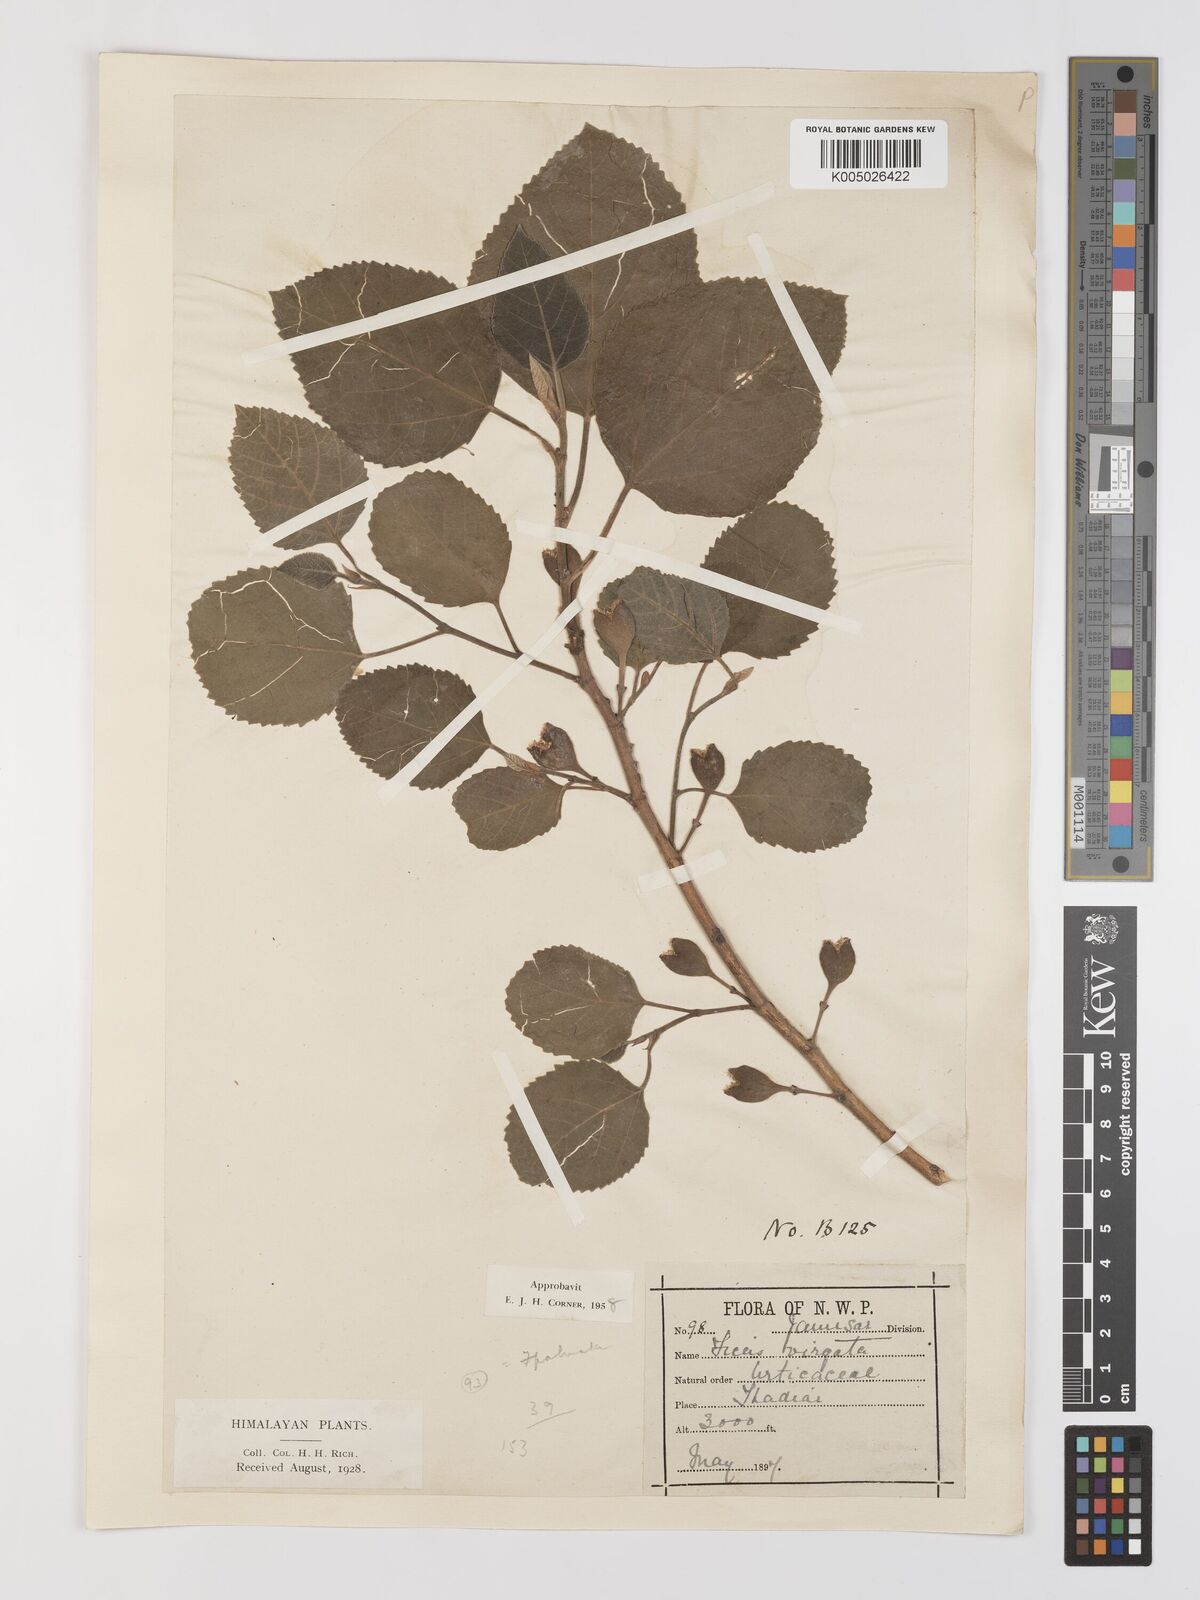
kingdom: Plantae
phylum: Tracheophyta
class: Magnoliopsida
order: Rosales
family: Moraceae
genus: Ficus
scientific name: Ficus
